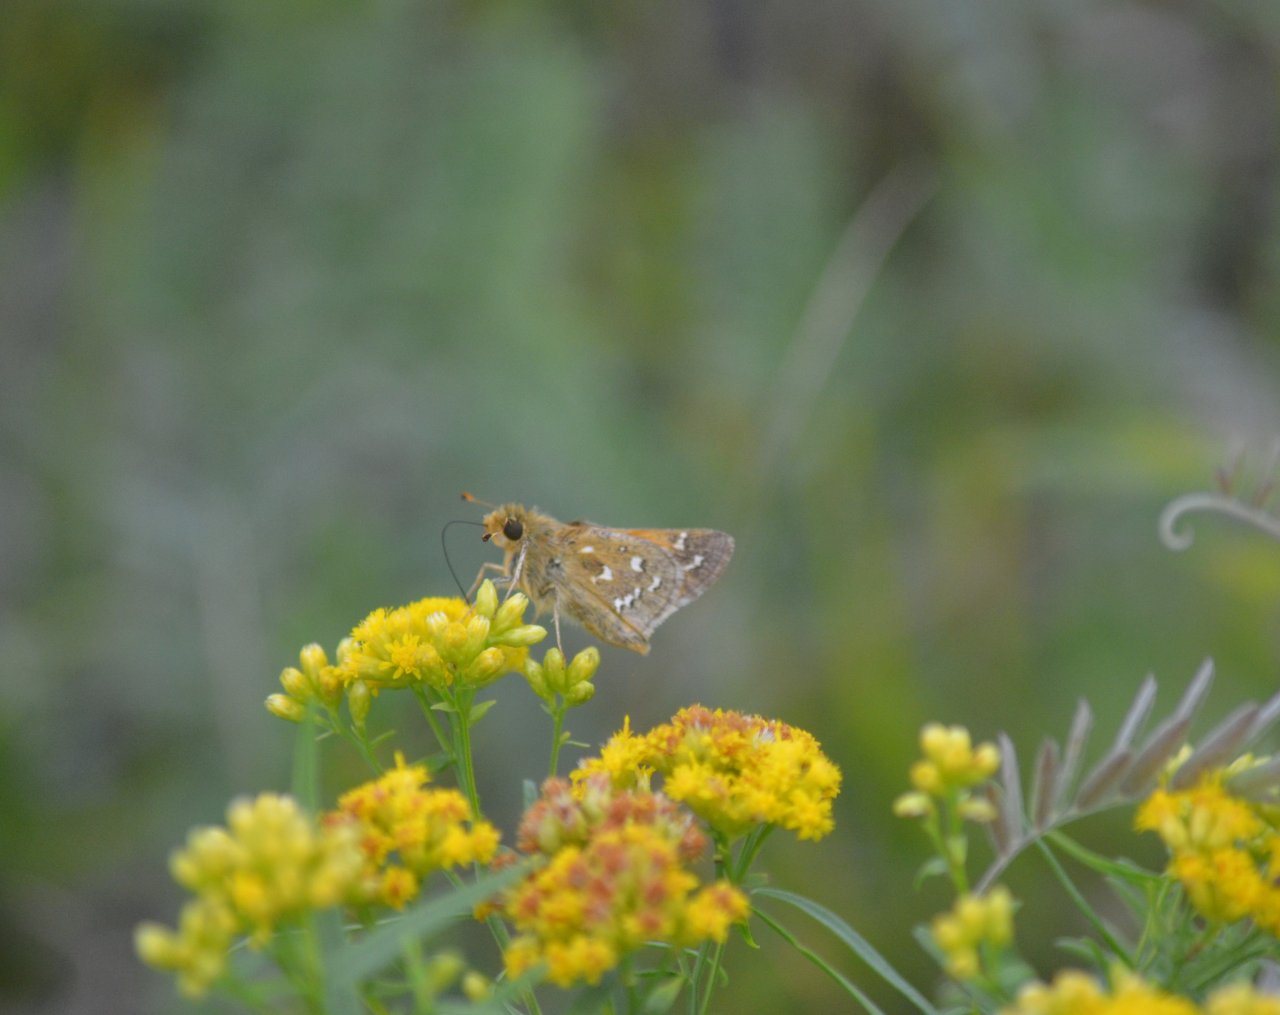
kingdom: Animalia
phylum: Arthropoda
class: Insecta
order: Lepidoptera
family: Hesperiidae
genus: Hesperia
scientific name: Hesperia comma
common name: Common Branded Skipper
